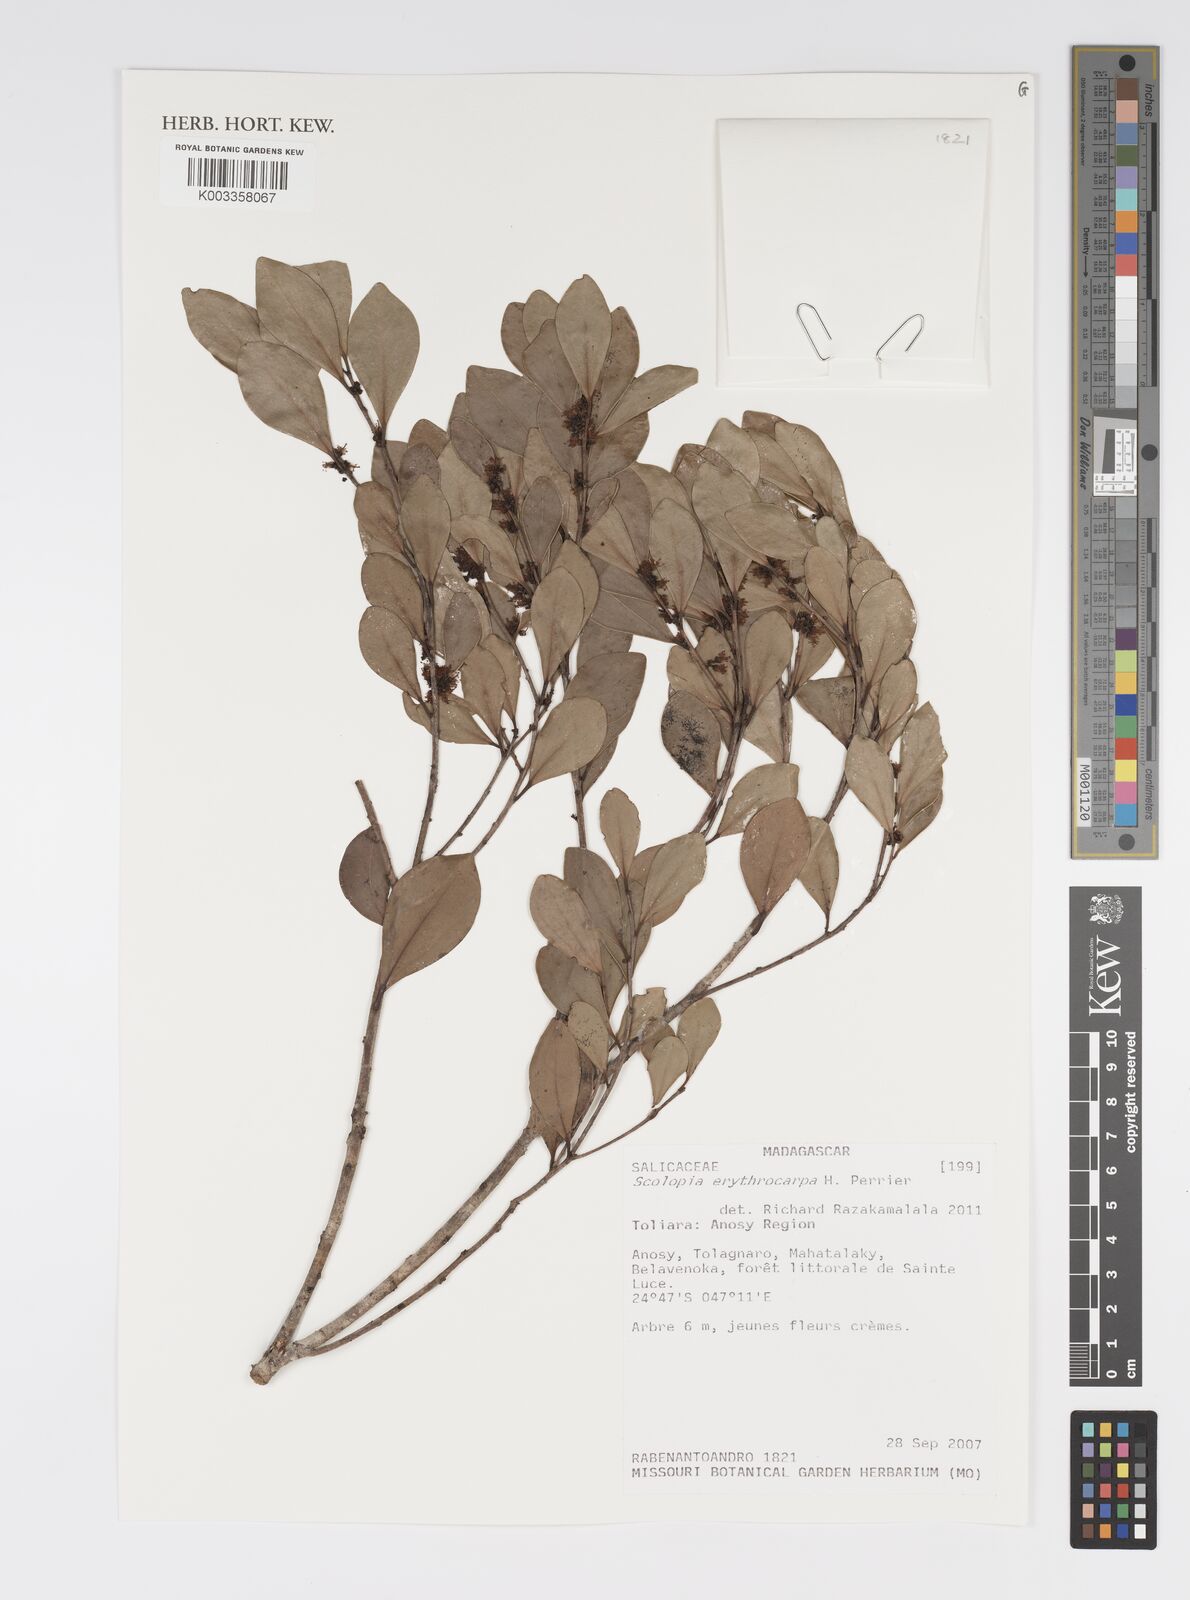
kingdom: Plantae
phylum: Tracheophyta
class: Magnoliopsida
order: Malpighiales
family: Salicaceae
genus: Scolopia
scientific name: Scolopia erythrocarpa
